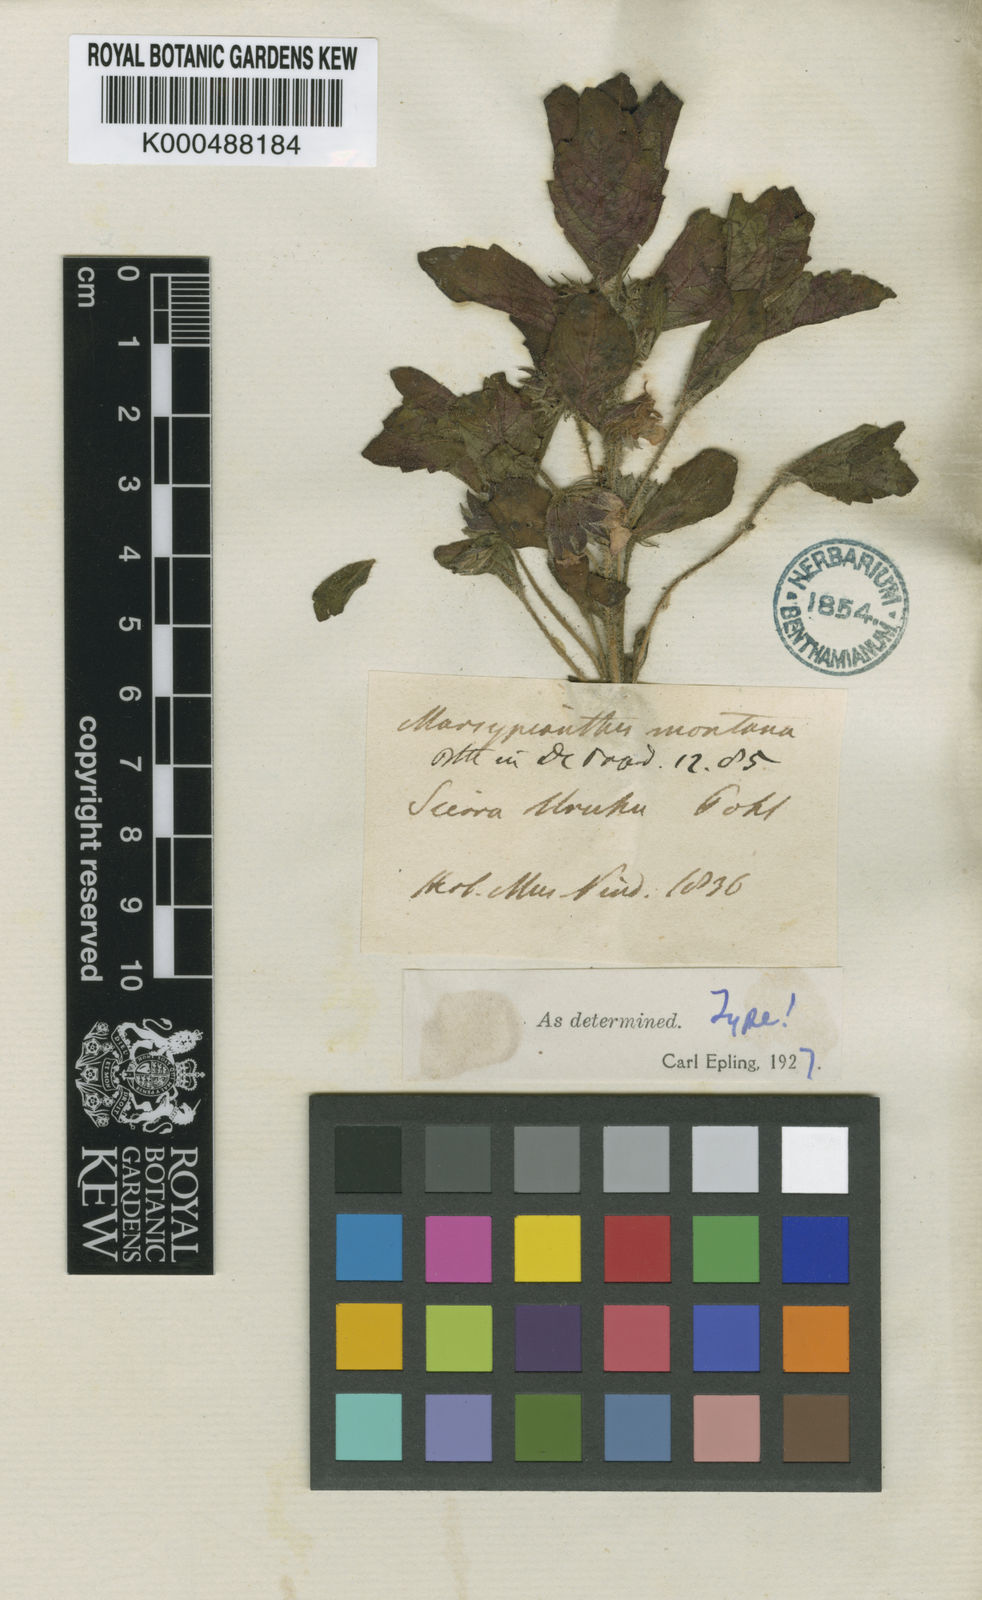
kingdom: Plantae
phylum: Tracheophyta
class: Magnoliopsida
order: Lamiales
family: Lamiaceae
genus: Marsypianthes
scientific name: Marsypianthes montana
